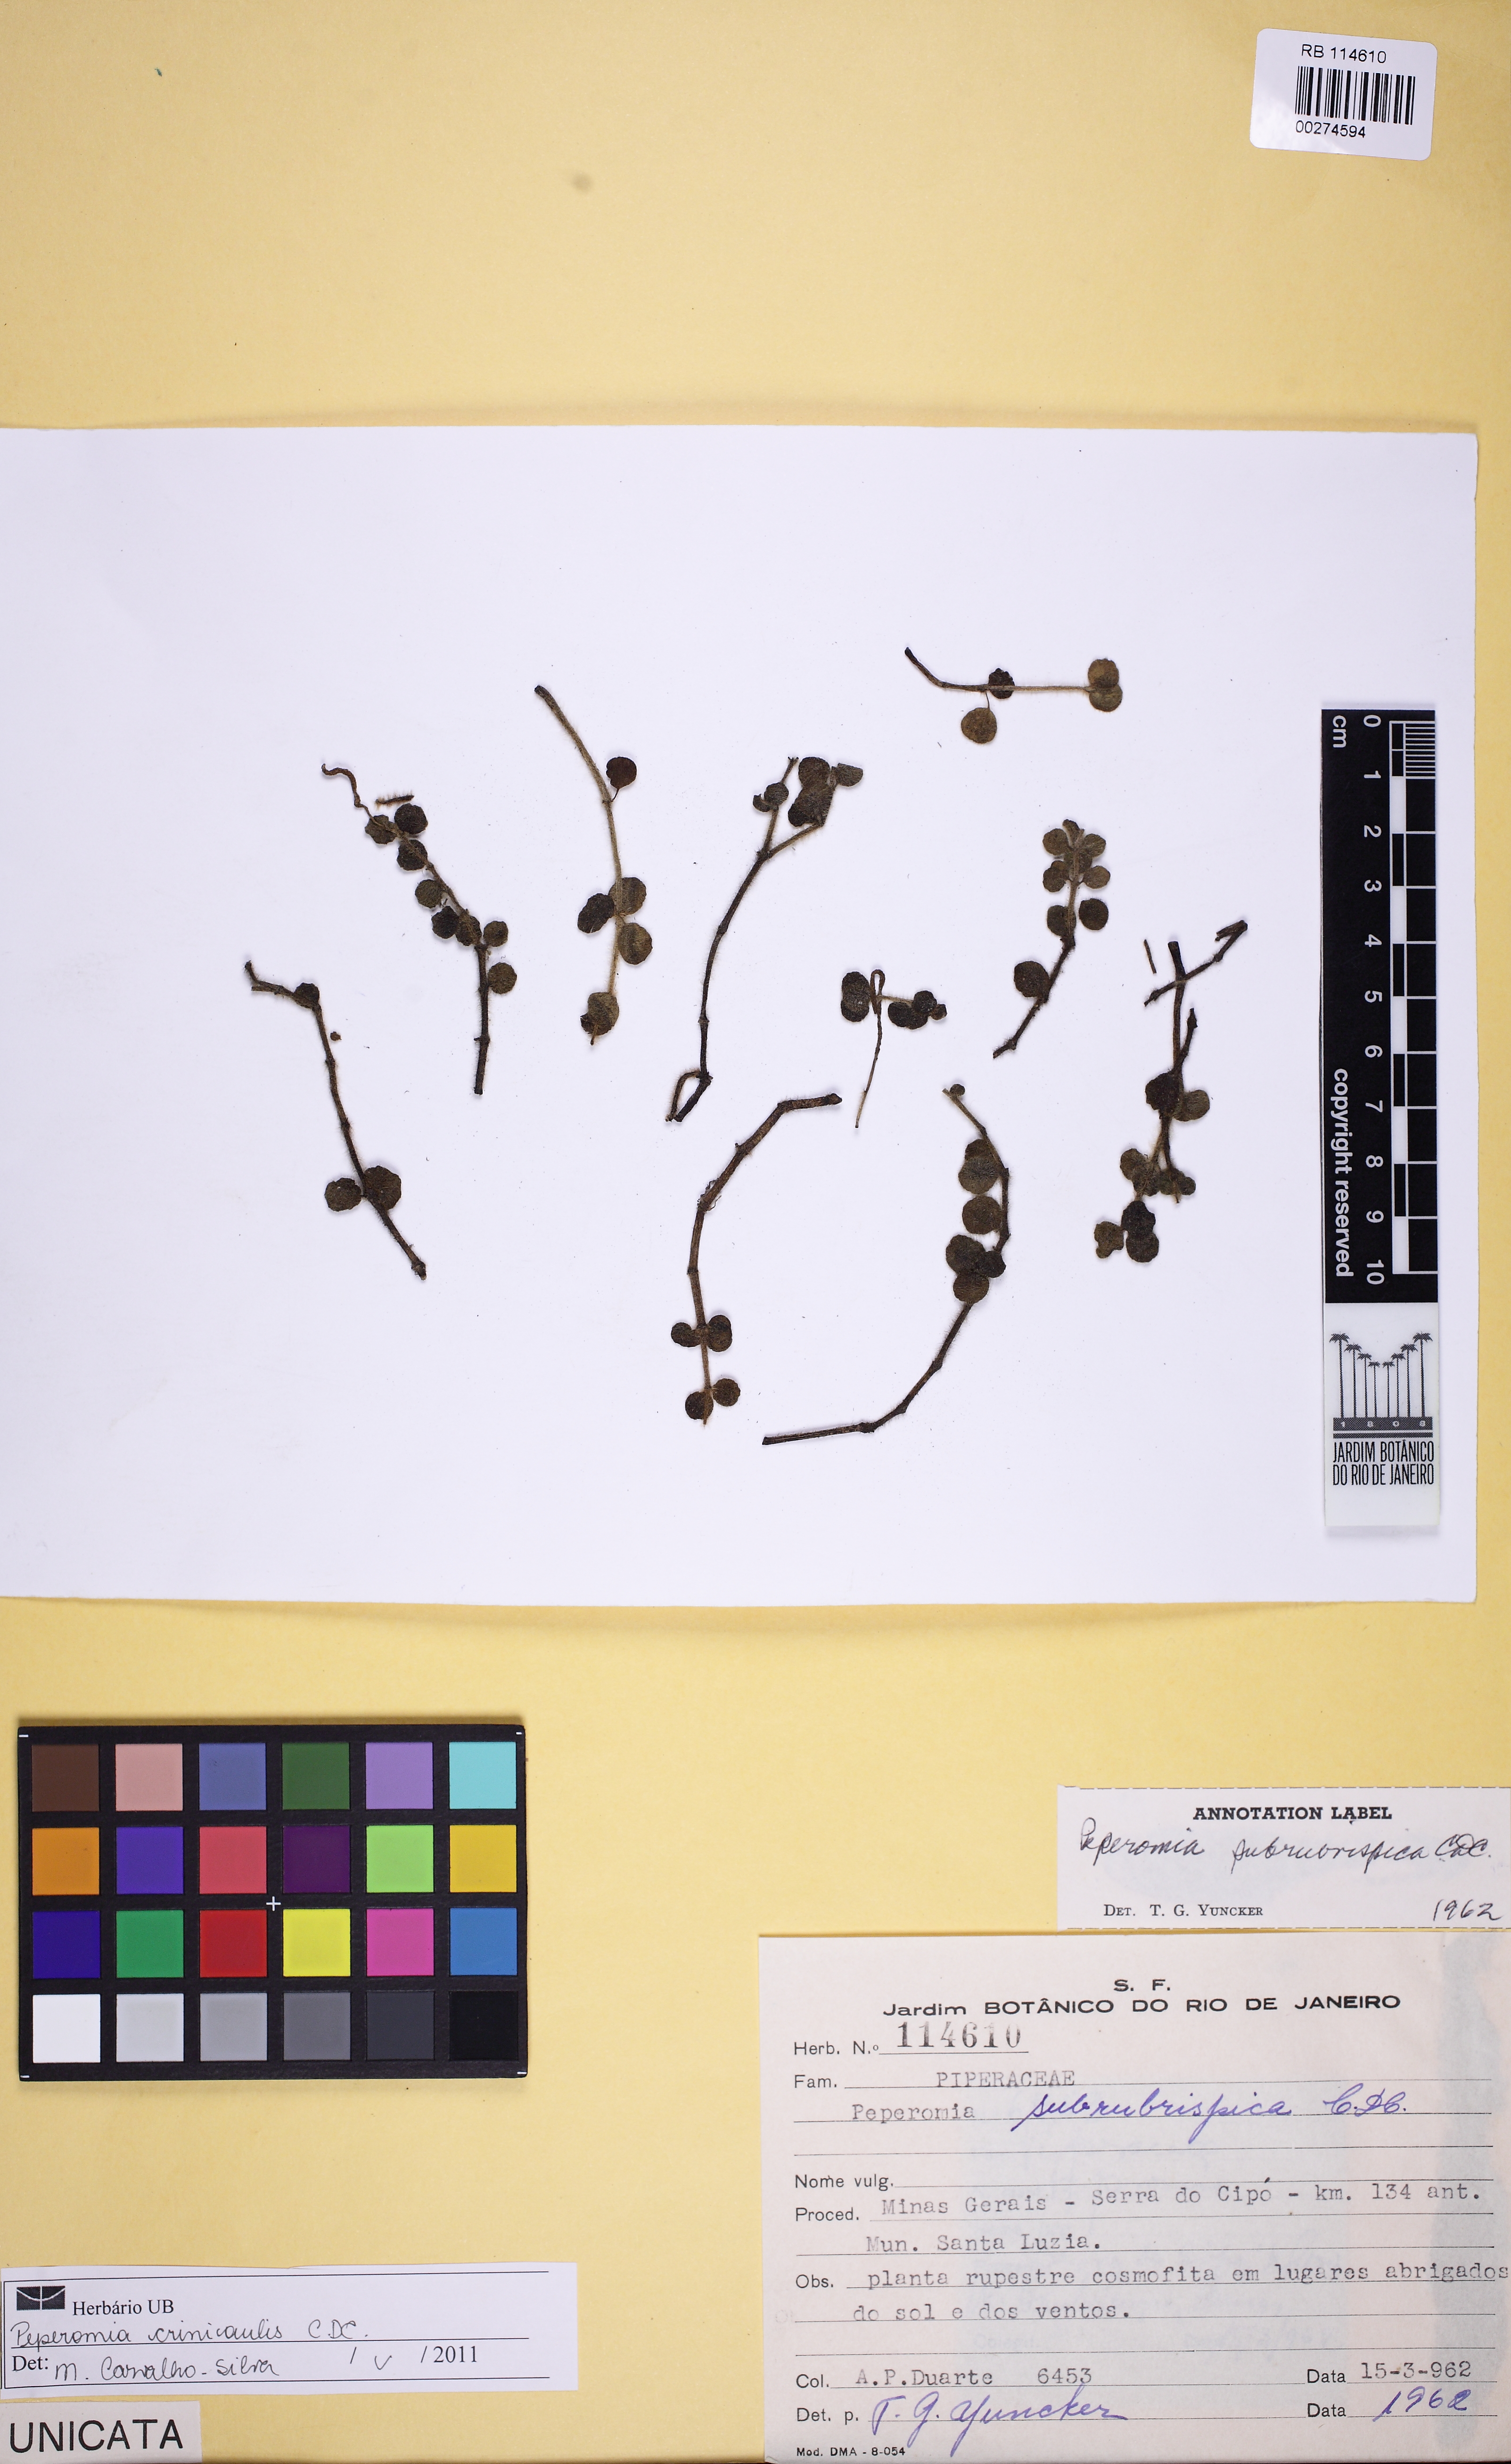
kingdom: Plantae
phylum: Tracheophyta
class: Magnoliopsida
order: Piperales
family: Piperaceae
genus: Peperomia
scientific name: Peperomia crinicaulis
